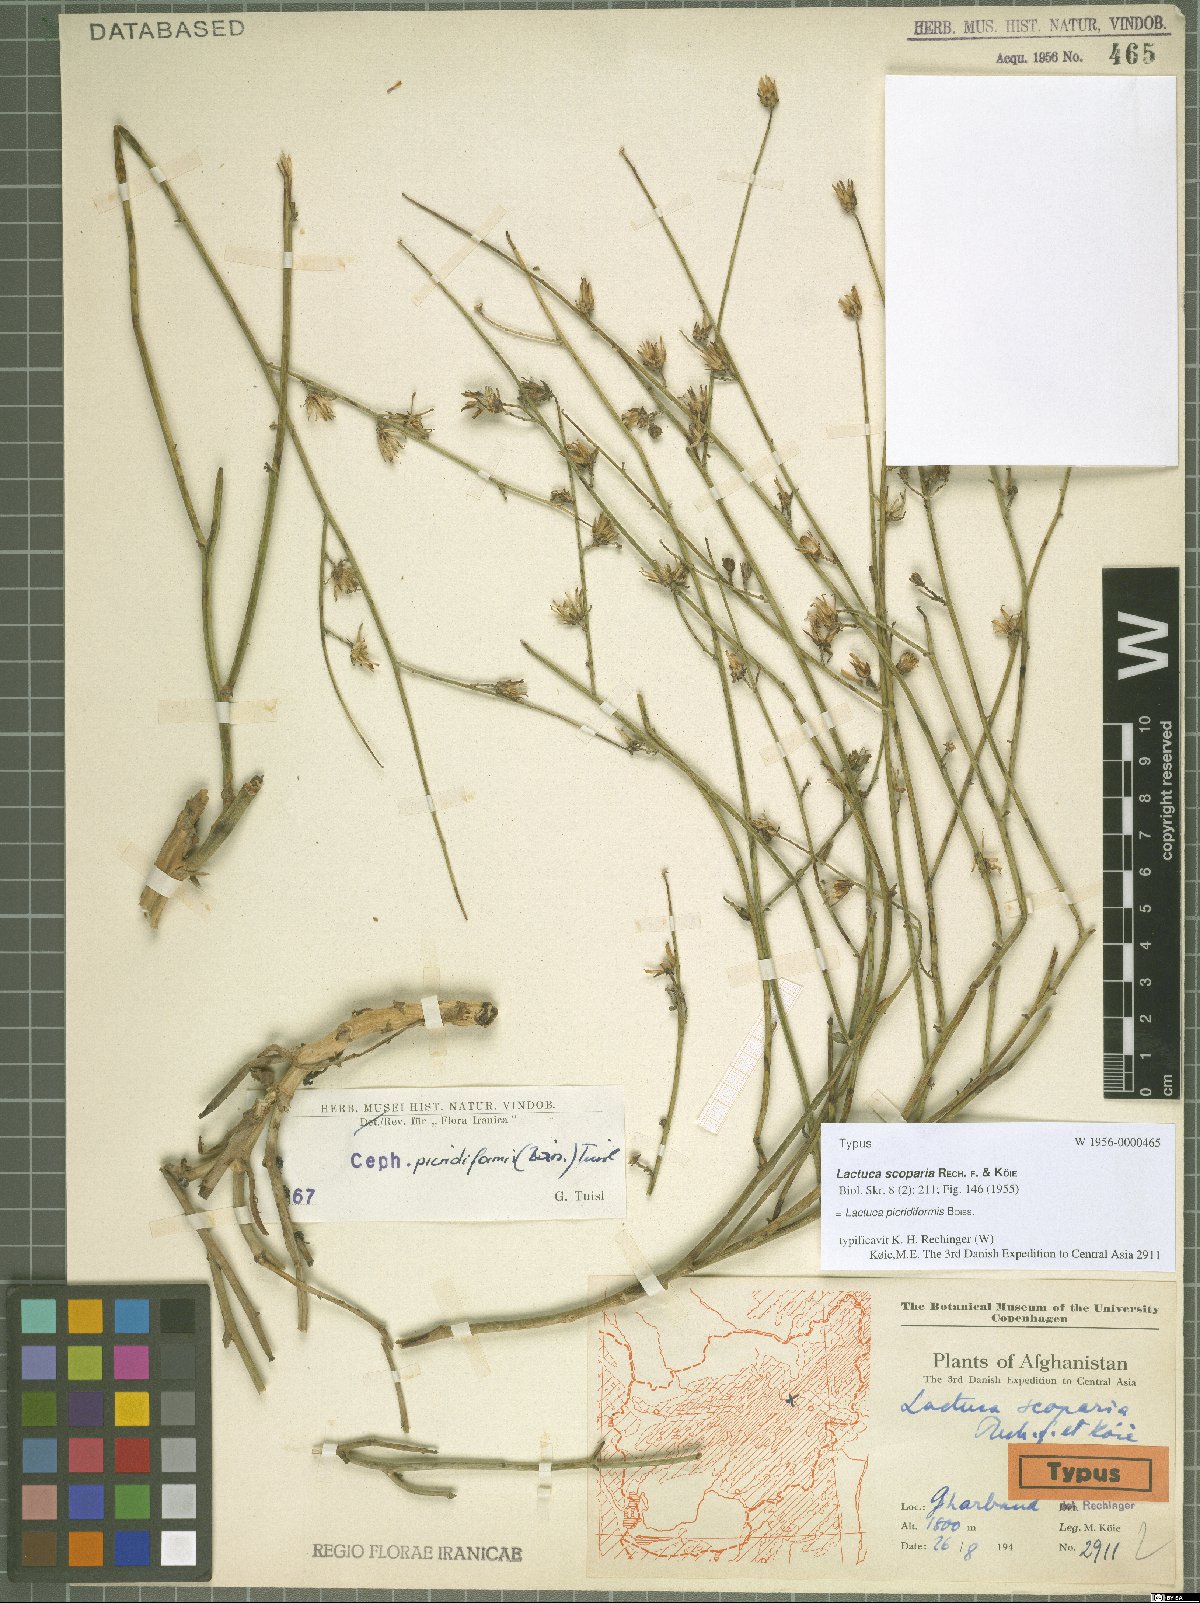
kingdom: Plantae
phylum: Tracheophyta
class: Magnoliopsida
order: Asterales
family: Asteraceae
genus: Lactuca
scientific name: Lactuca picridiformis
